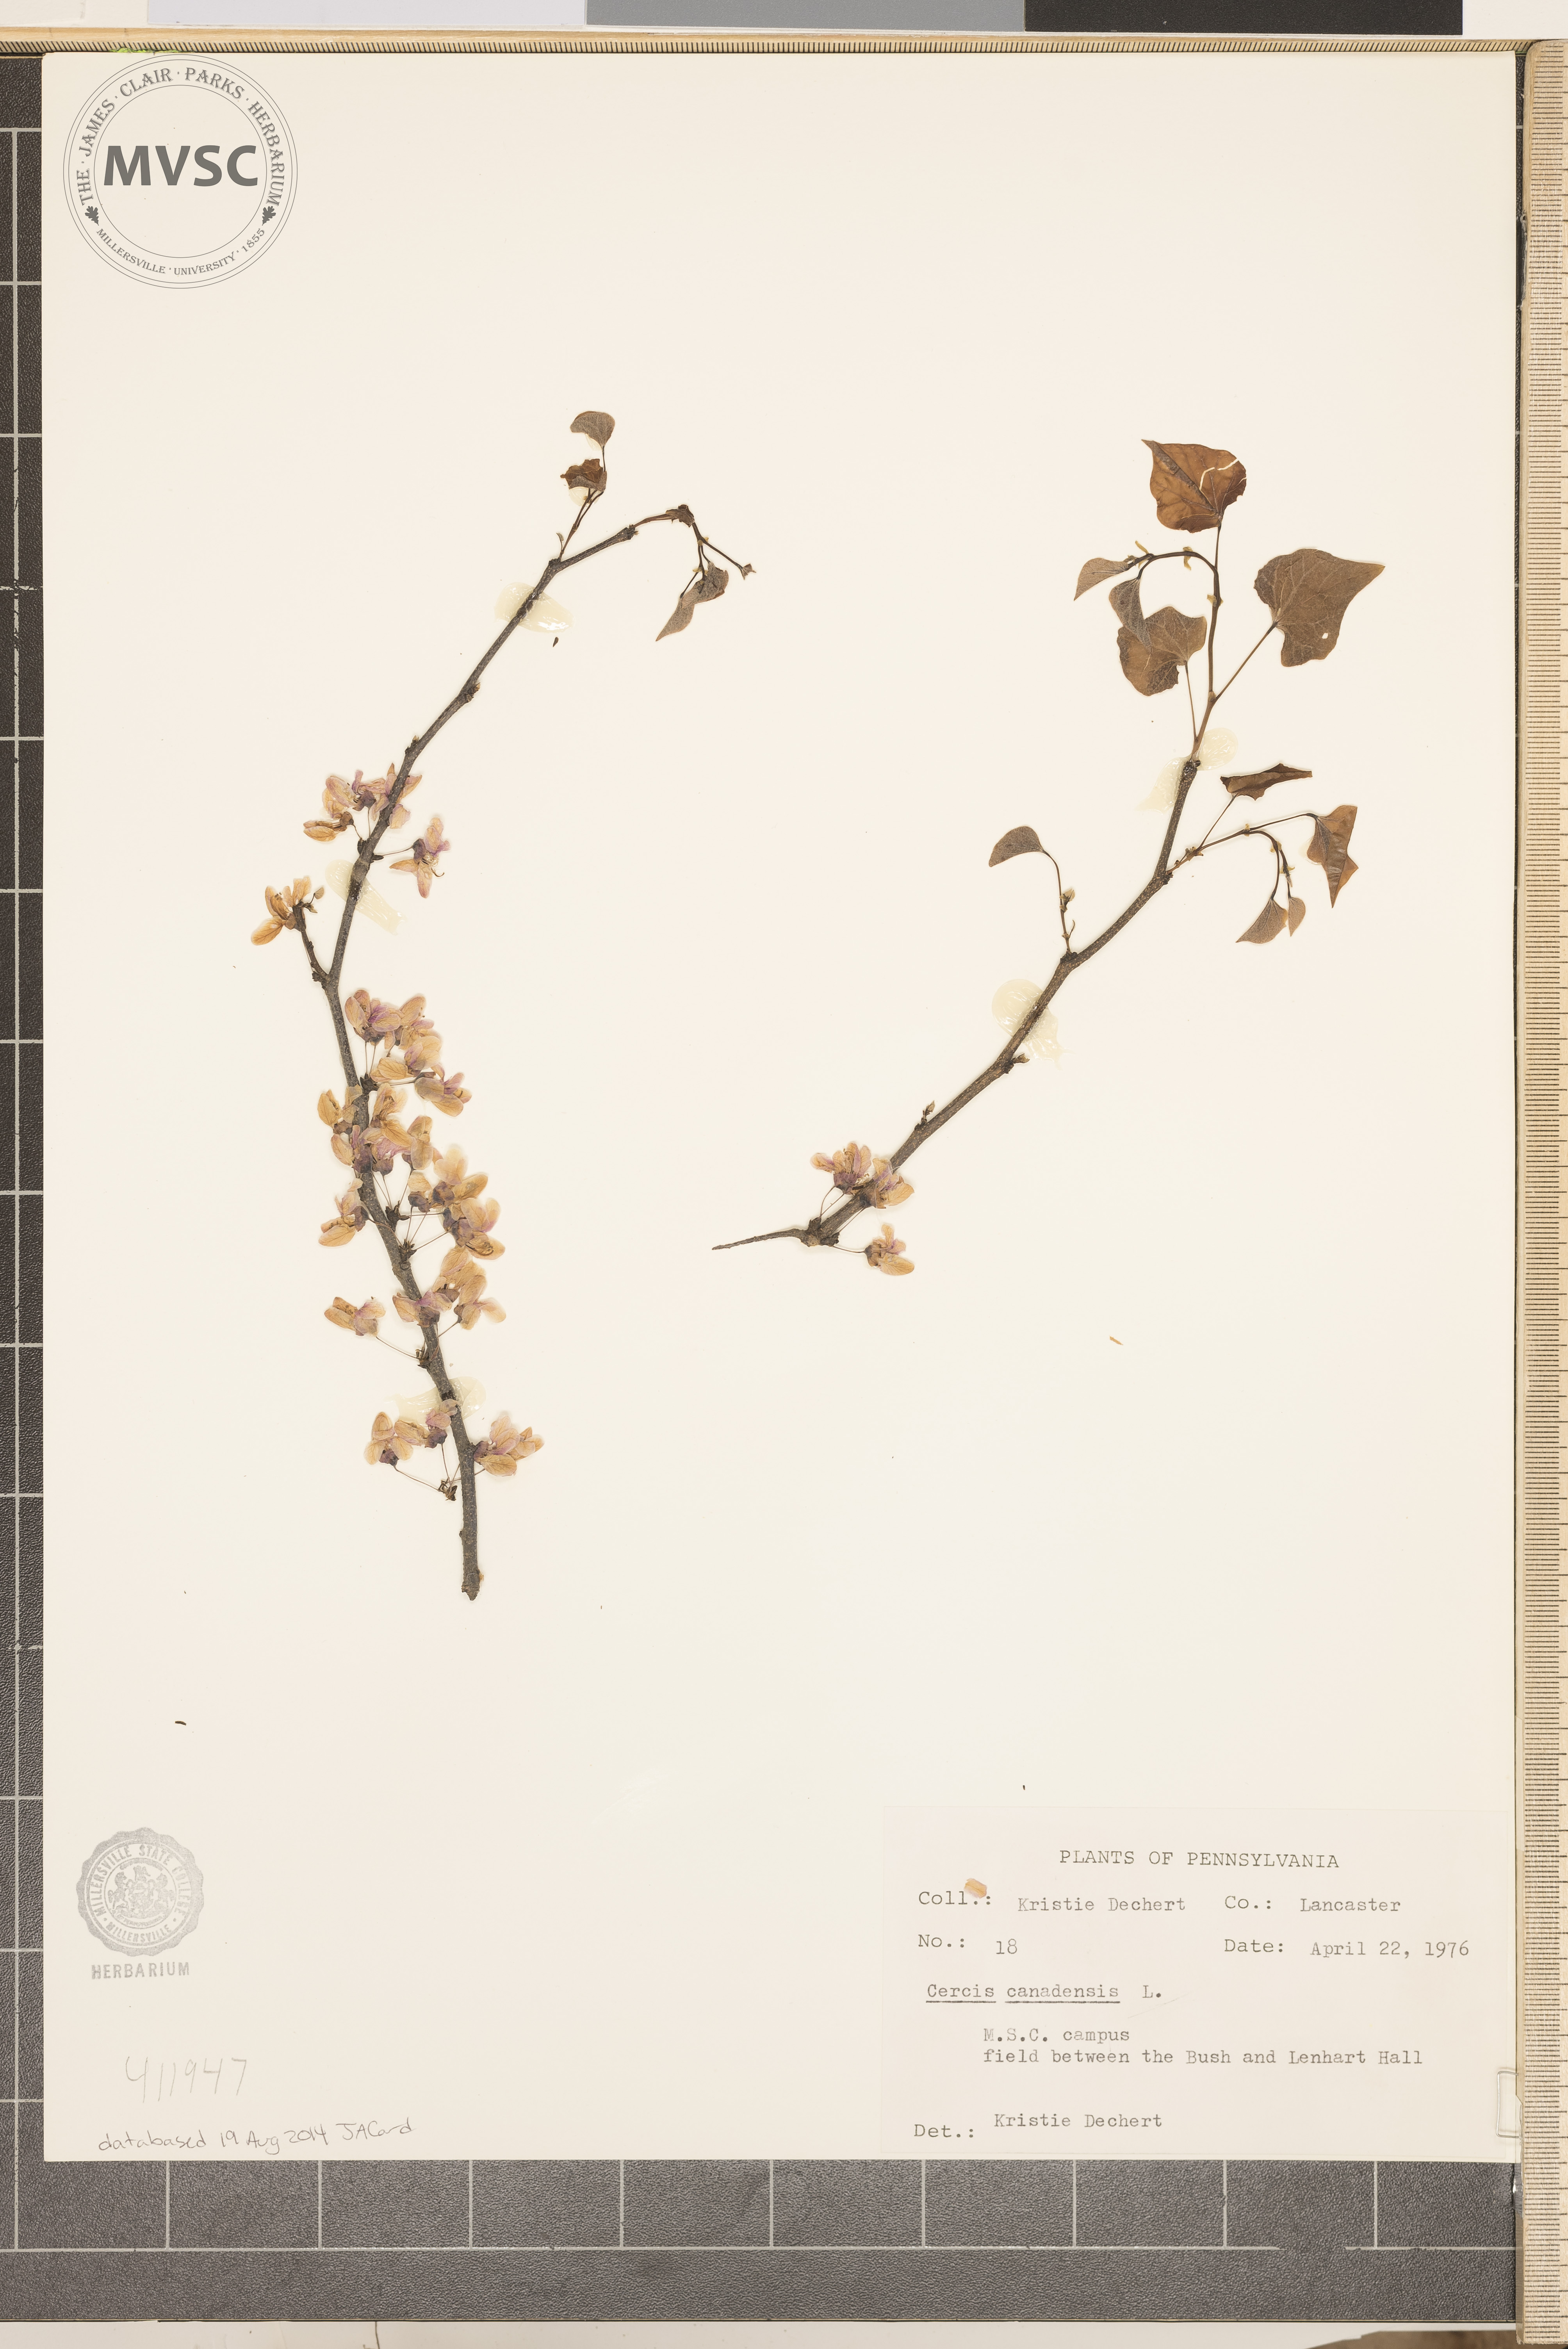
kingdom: Plantae
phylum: Tracheophyta
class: Magnoliopsida
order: Fabales
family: Fabaceae
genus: Cercis
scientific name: Cercis canadensis
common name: Eastern redbud
